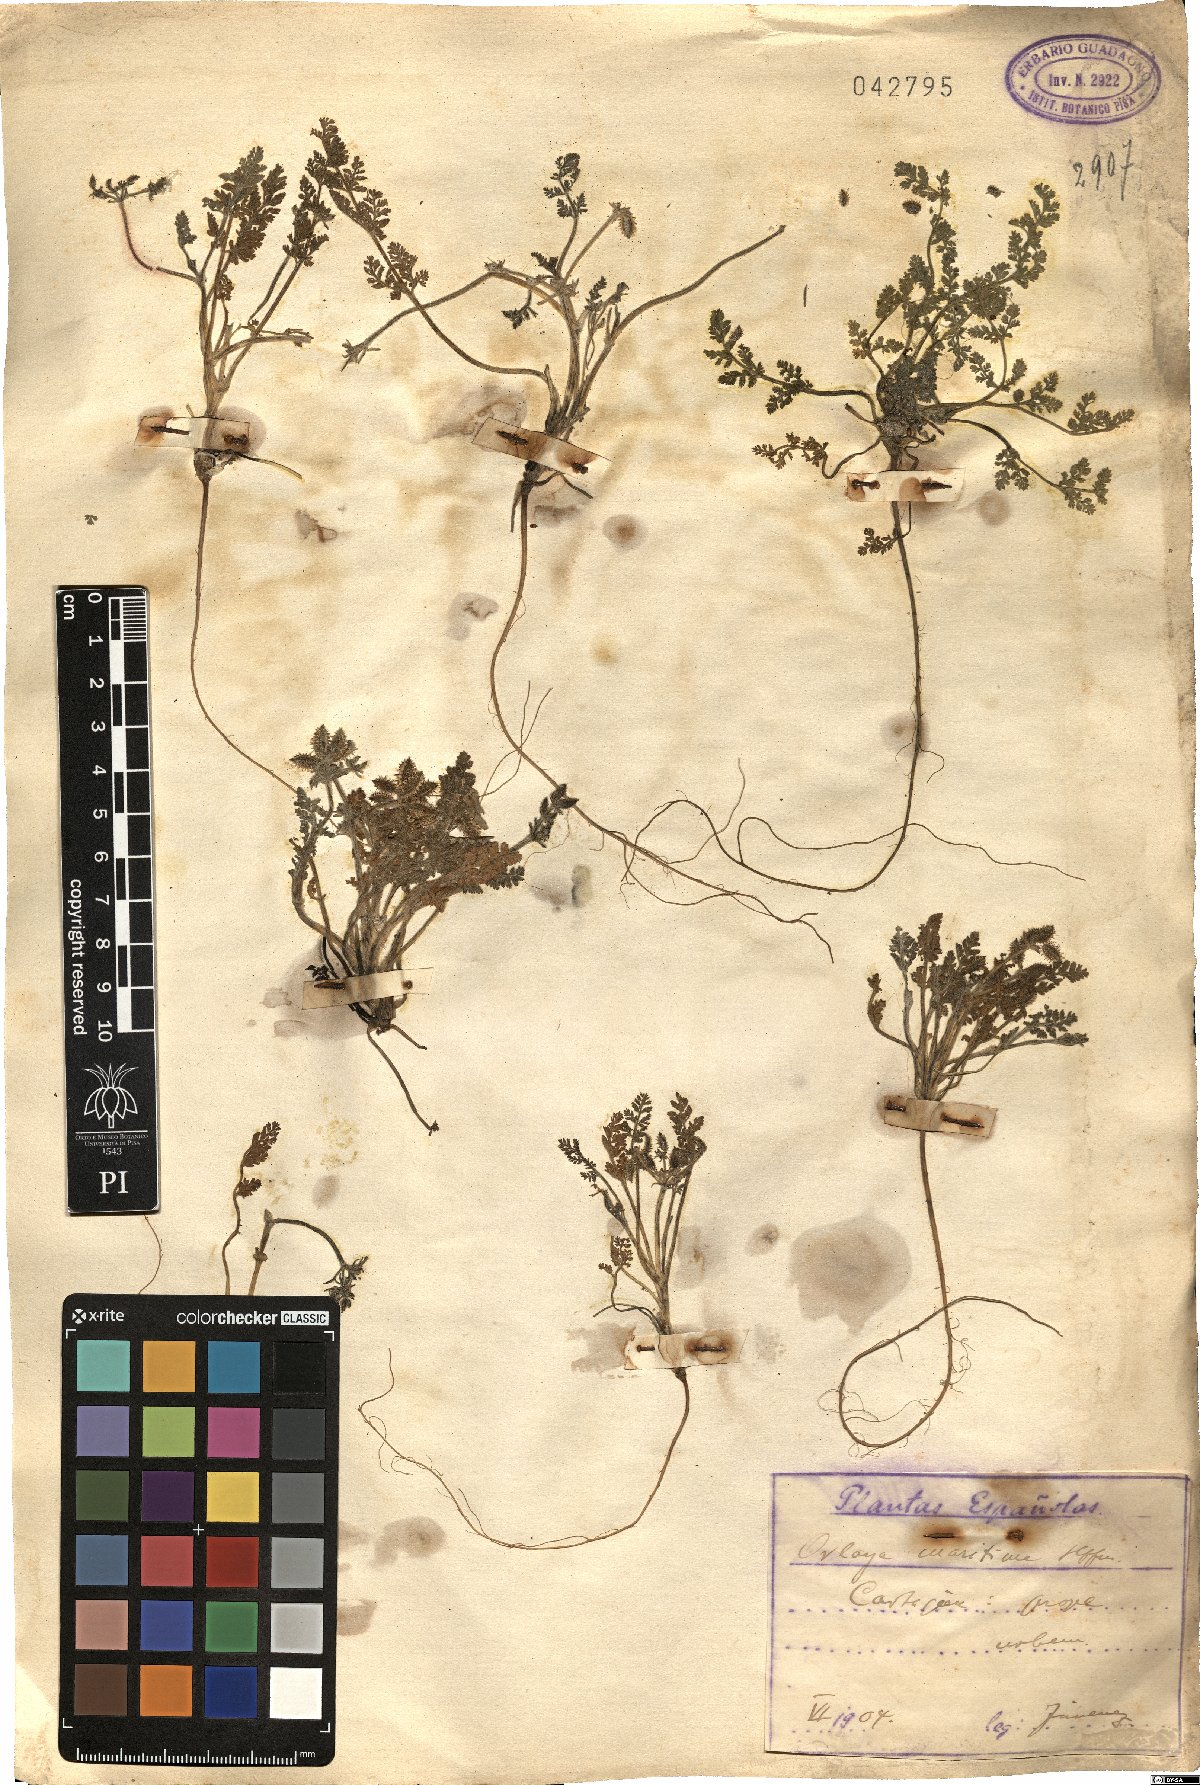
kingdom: Plantae
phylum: Tracheophyta
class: Magnoliopsida
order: Apiales
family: Apiaceae
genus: Daucus
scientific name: Daucus pumilus
